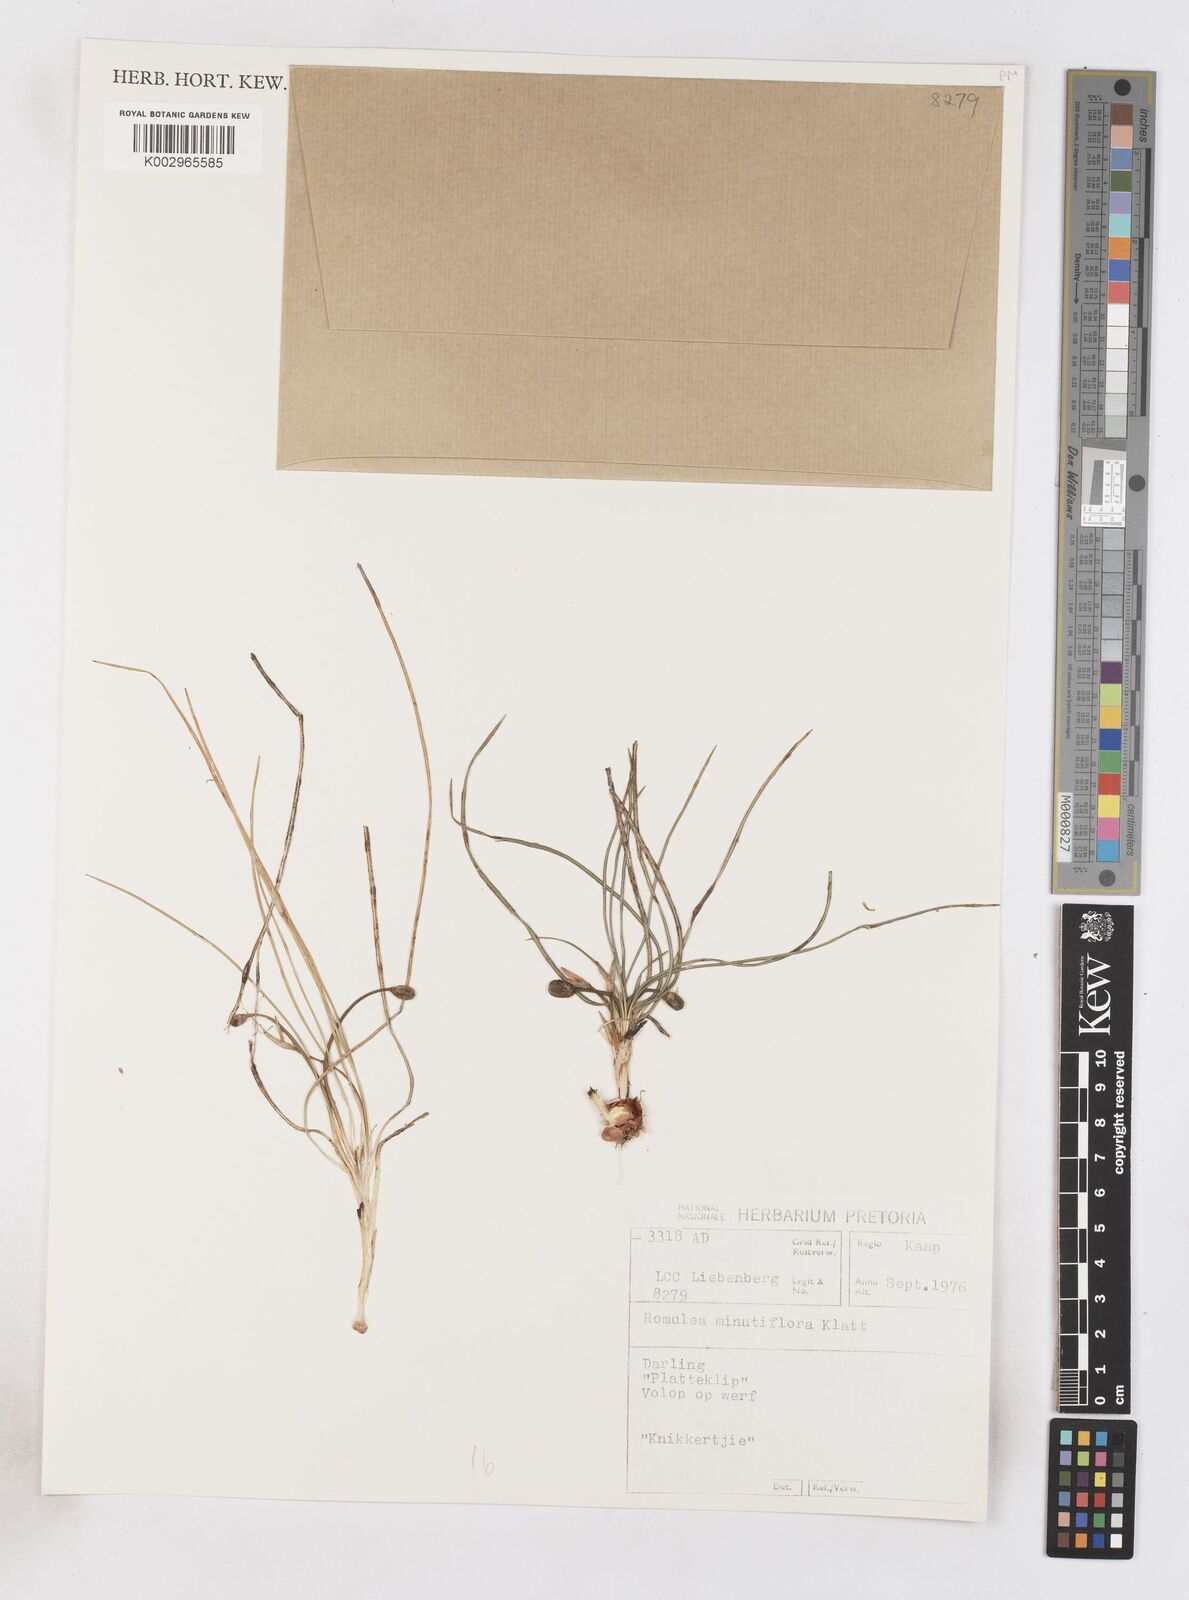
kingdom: Plantae
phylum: Tracheophyta
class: Liliopsida
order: Asparagales
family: Iridaceae
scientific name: Iridaceae
